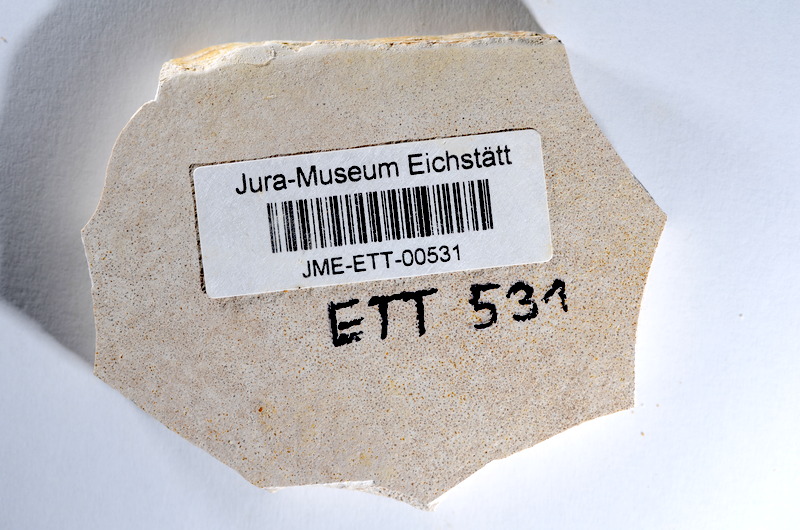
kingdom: Animalia
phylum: Chordata
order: Salmoniformes
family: Orthogonikleithridae
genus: Orthogonikleithrus
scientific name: Orthogonikleithrus hoelli
